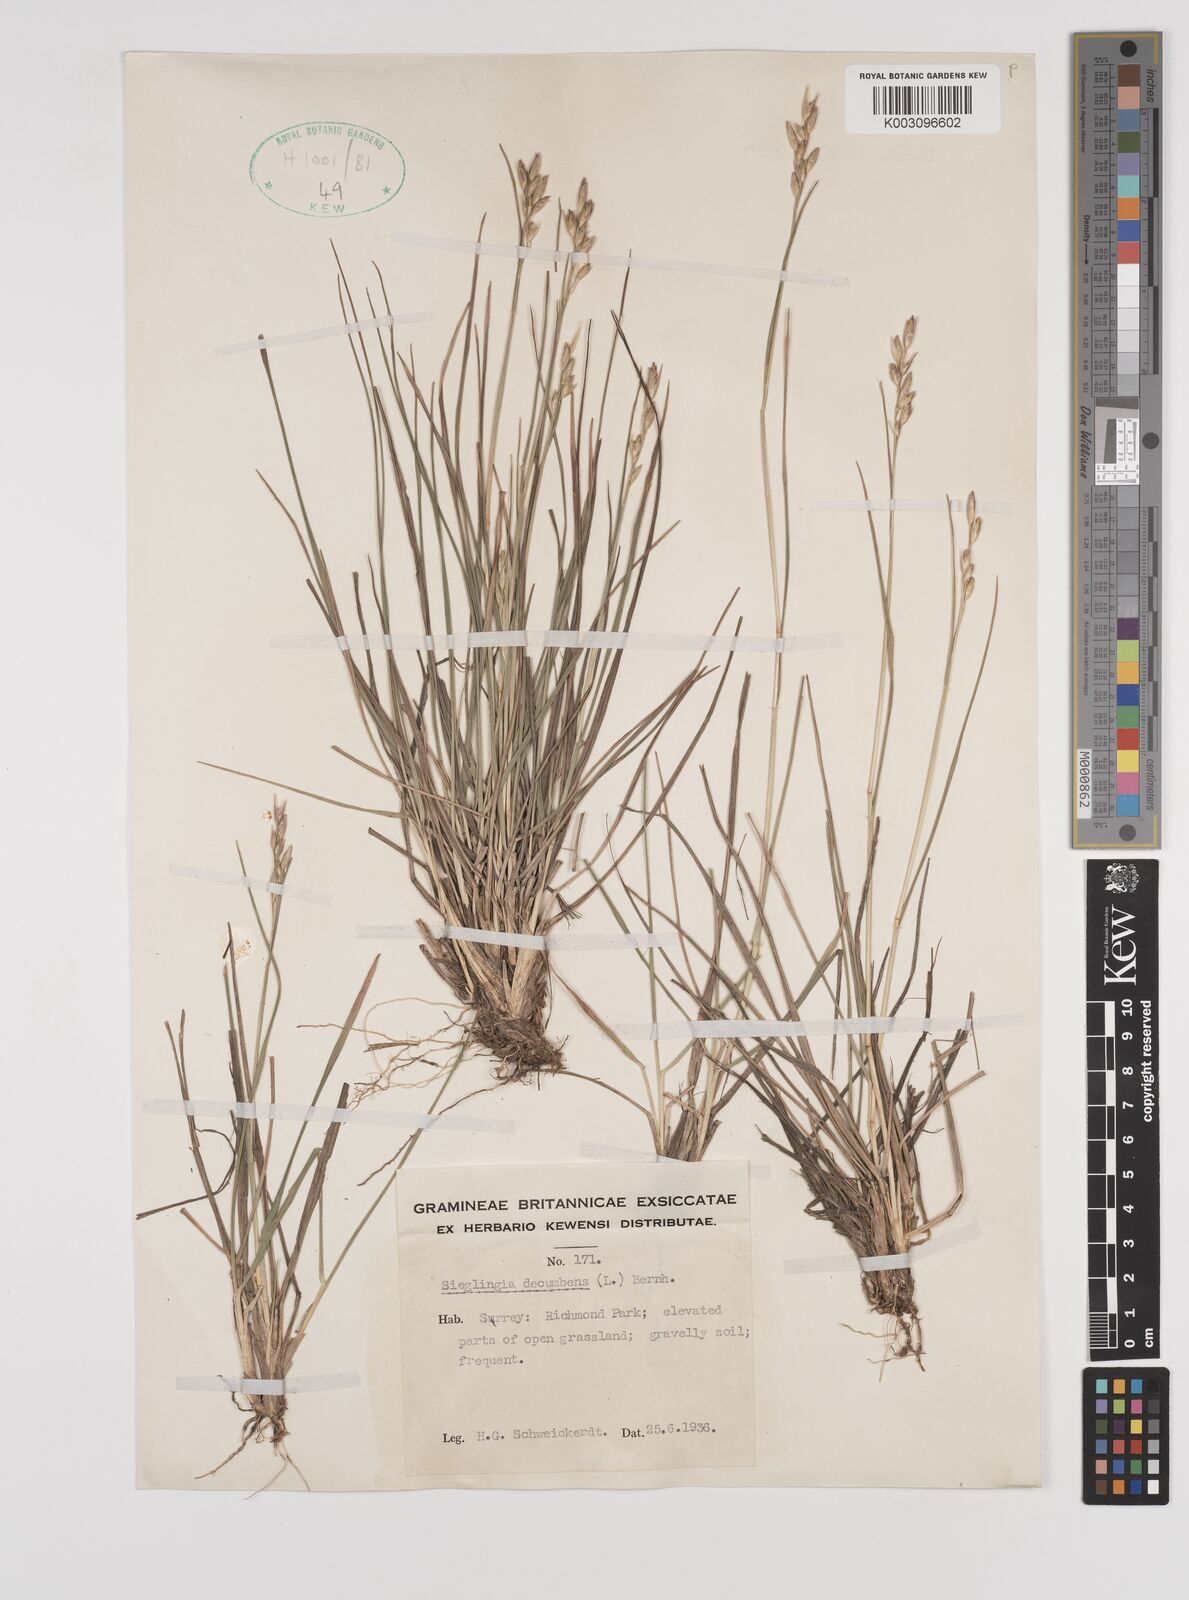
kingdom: Plantae
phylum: Tracheophyta
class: Liliopsida
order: Poales
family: Poaceae
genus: Danthonia
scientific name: Danthonia decumbens
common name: Common heathgrass
